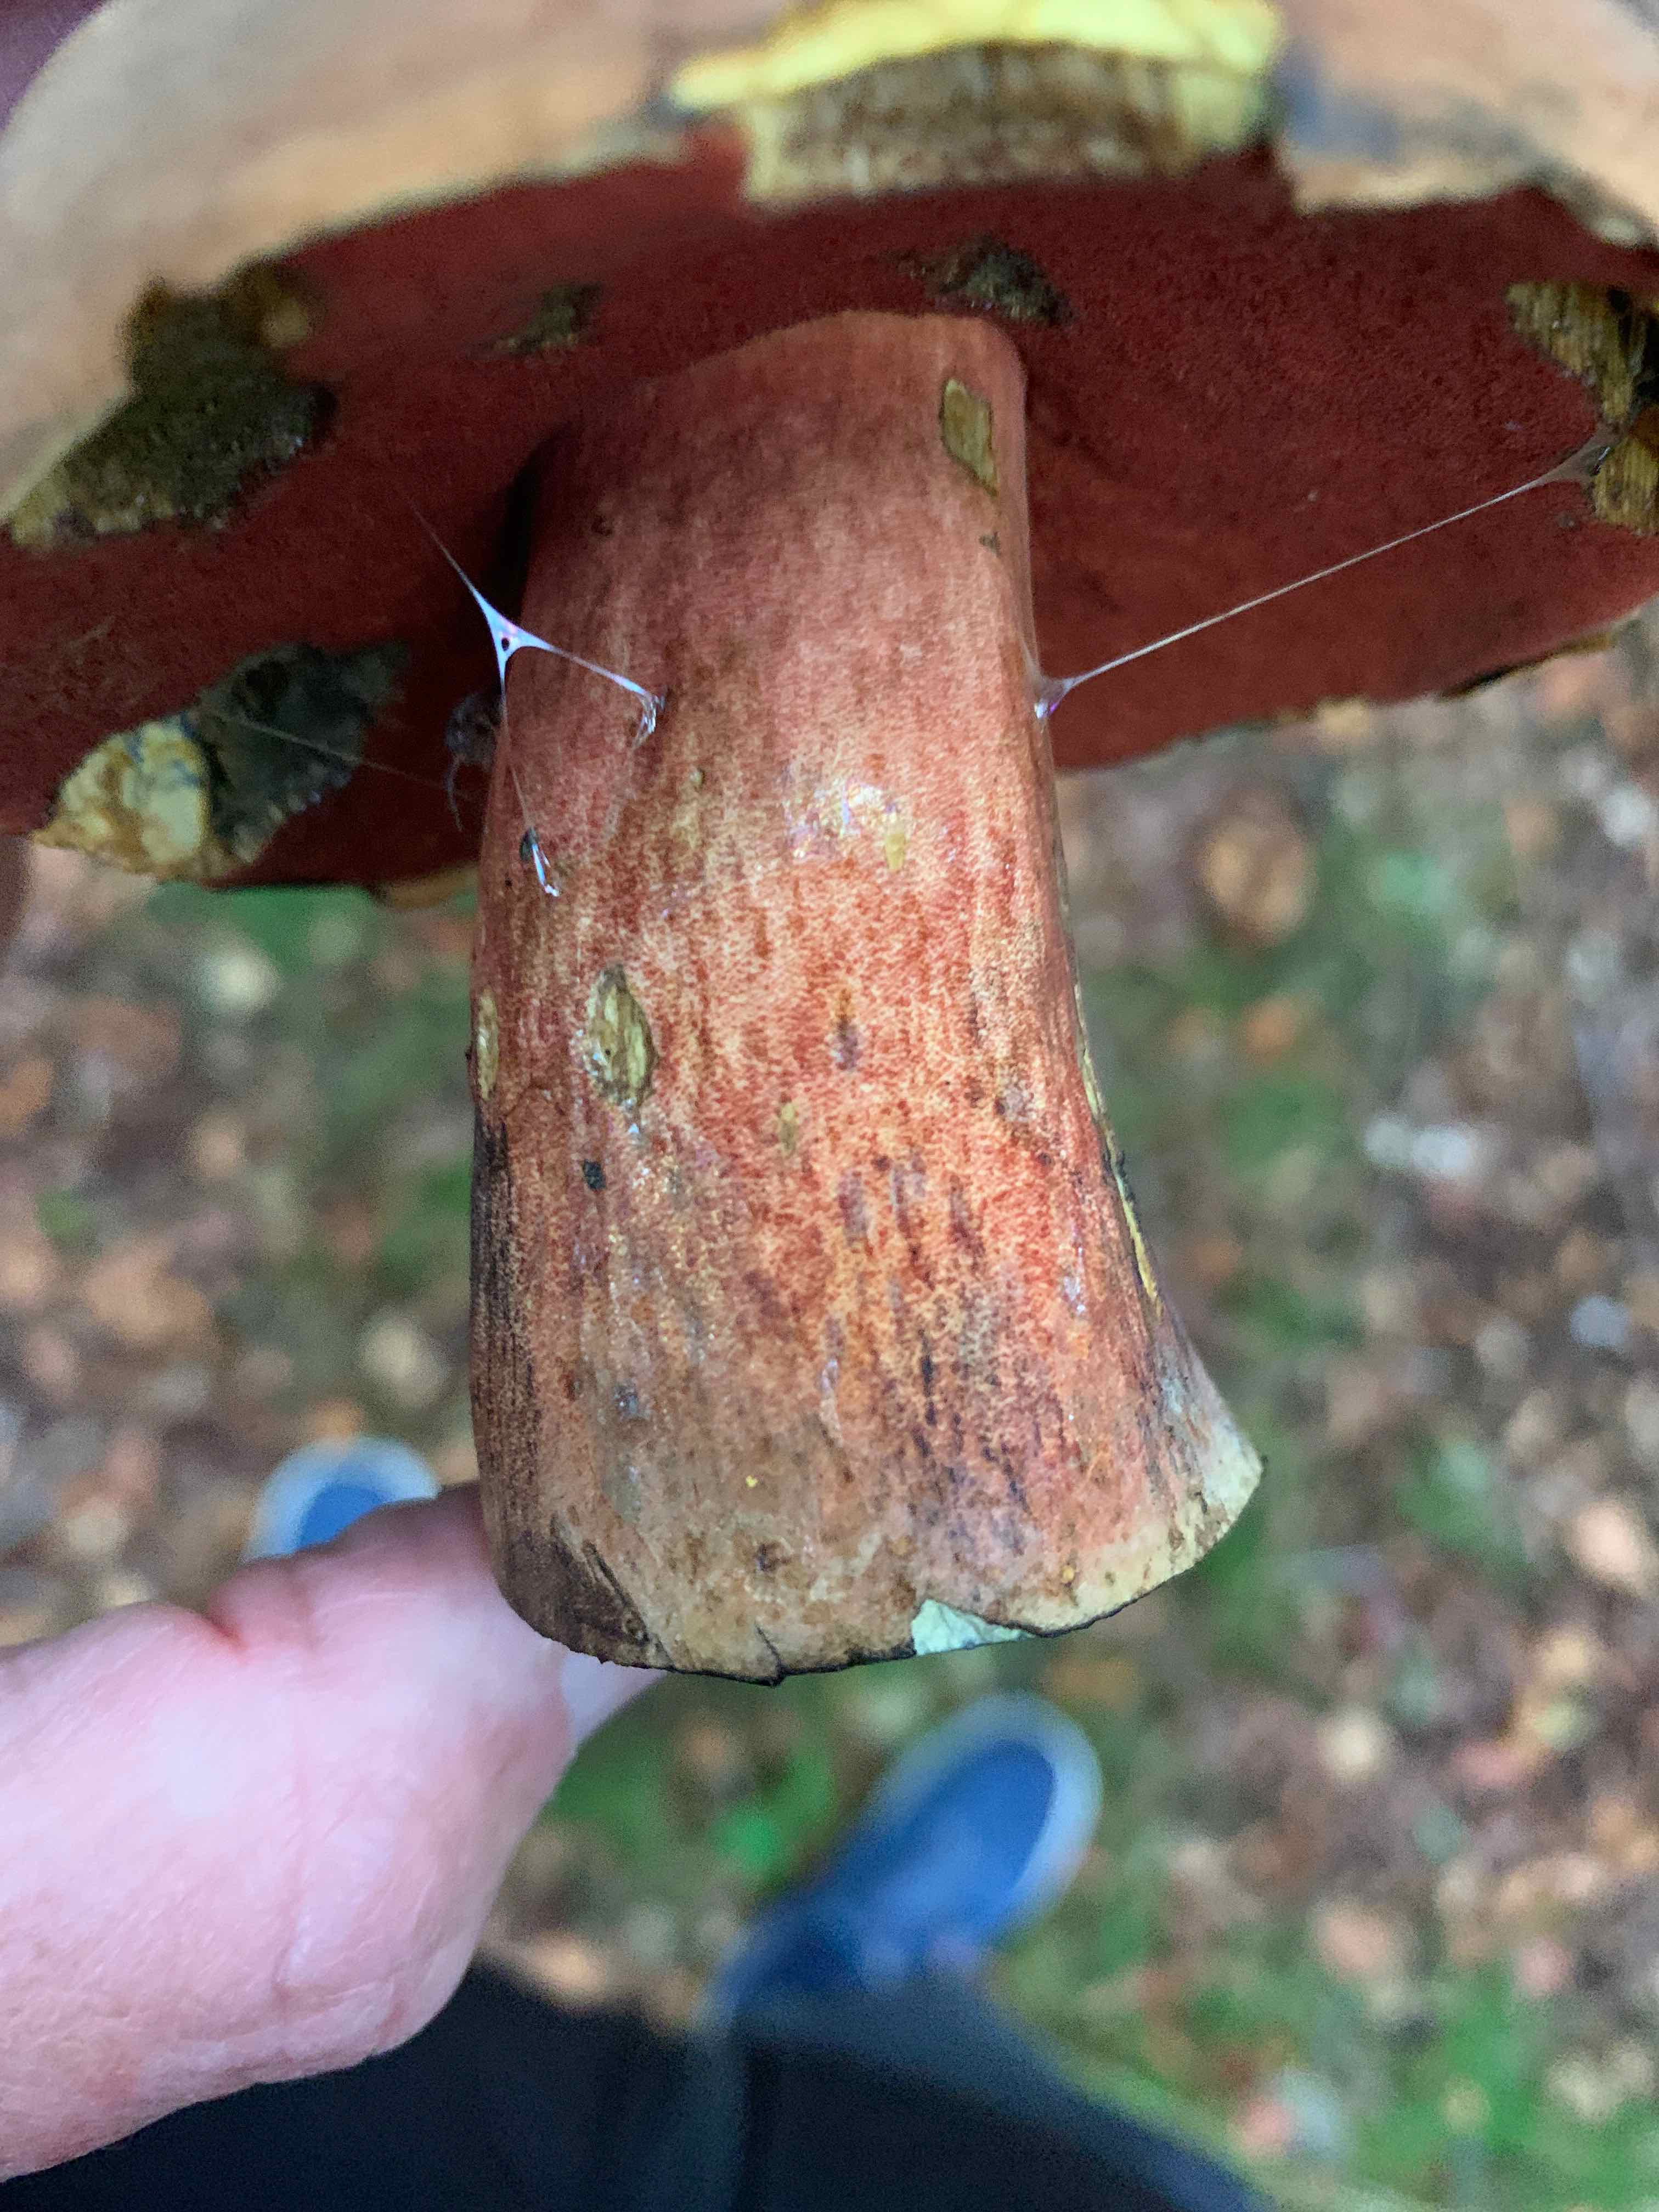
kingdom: Fungi
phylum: Basidiomycota
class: Agaricomycetes
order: Boletales
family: Boletaceae
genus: Neoboletus
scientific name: Neoboletus erythropus
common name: punktstokket indigorørhat
